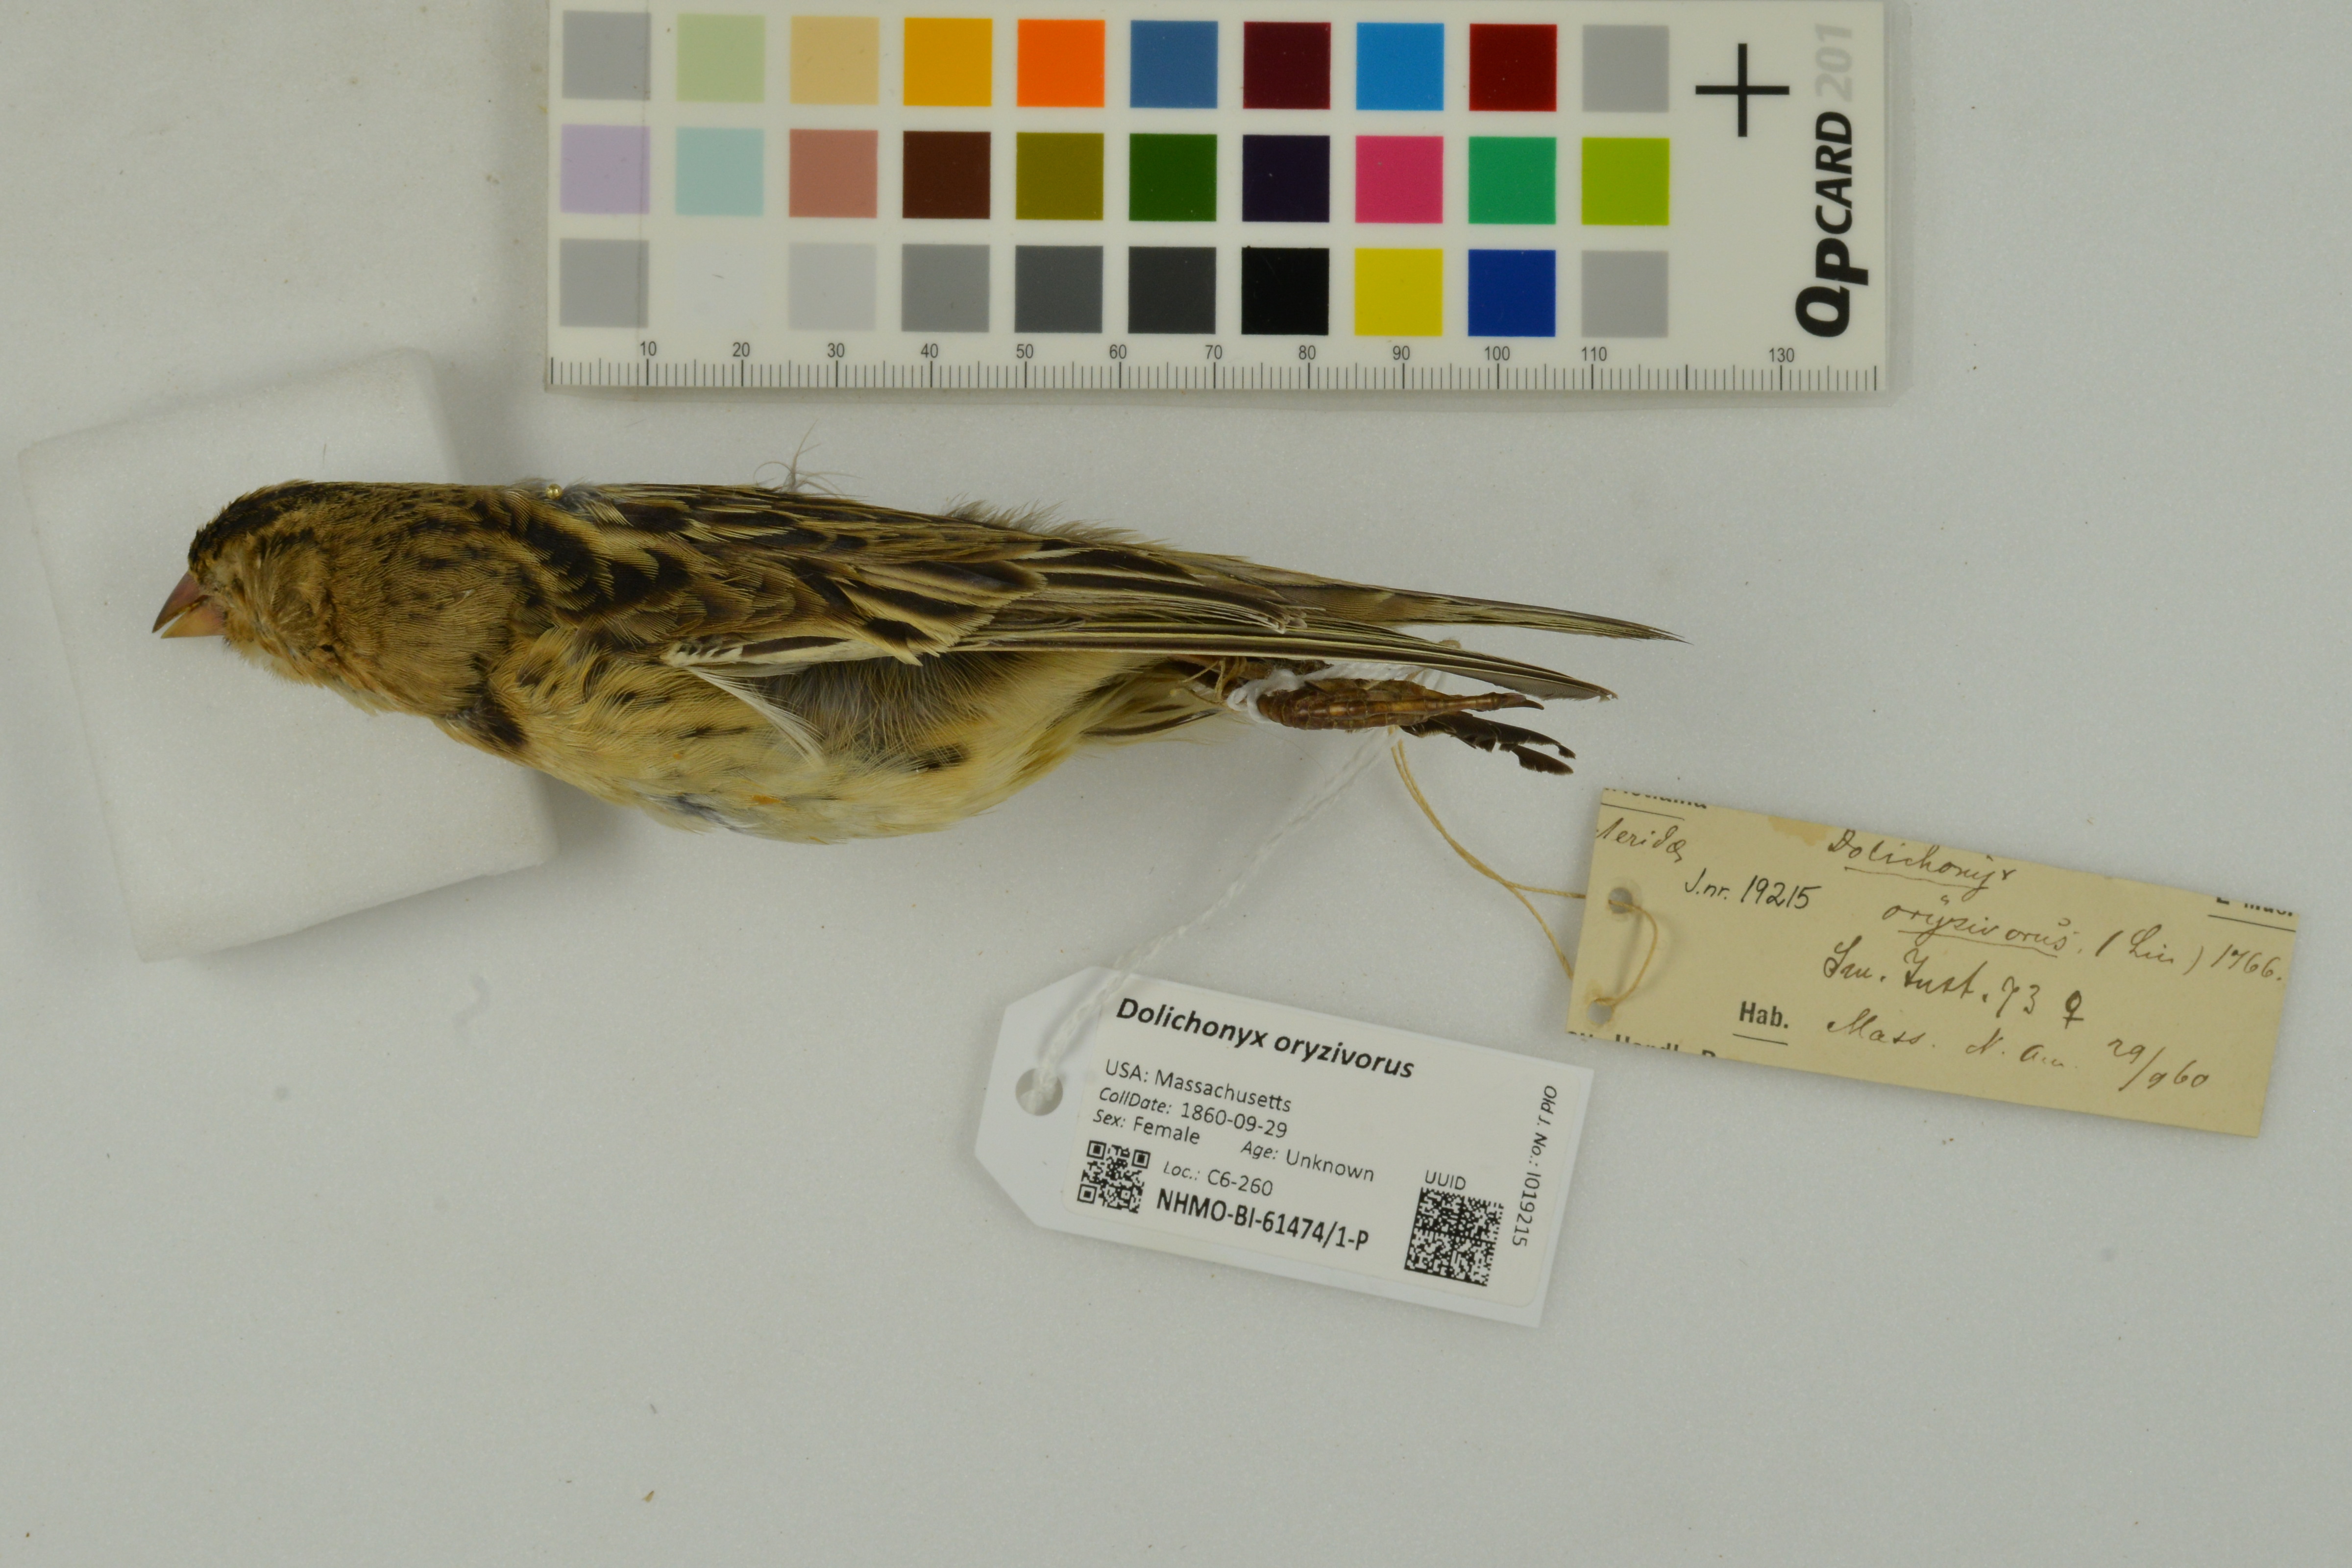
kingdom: Animalia
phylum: Chordata
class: Aves
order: Passeriformes
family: Icteridae
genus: Dolichonyx
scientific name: Dolichonyx oryzivorus
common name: Bobolink
